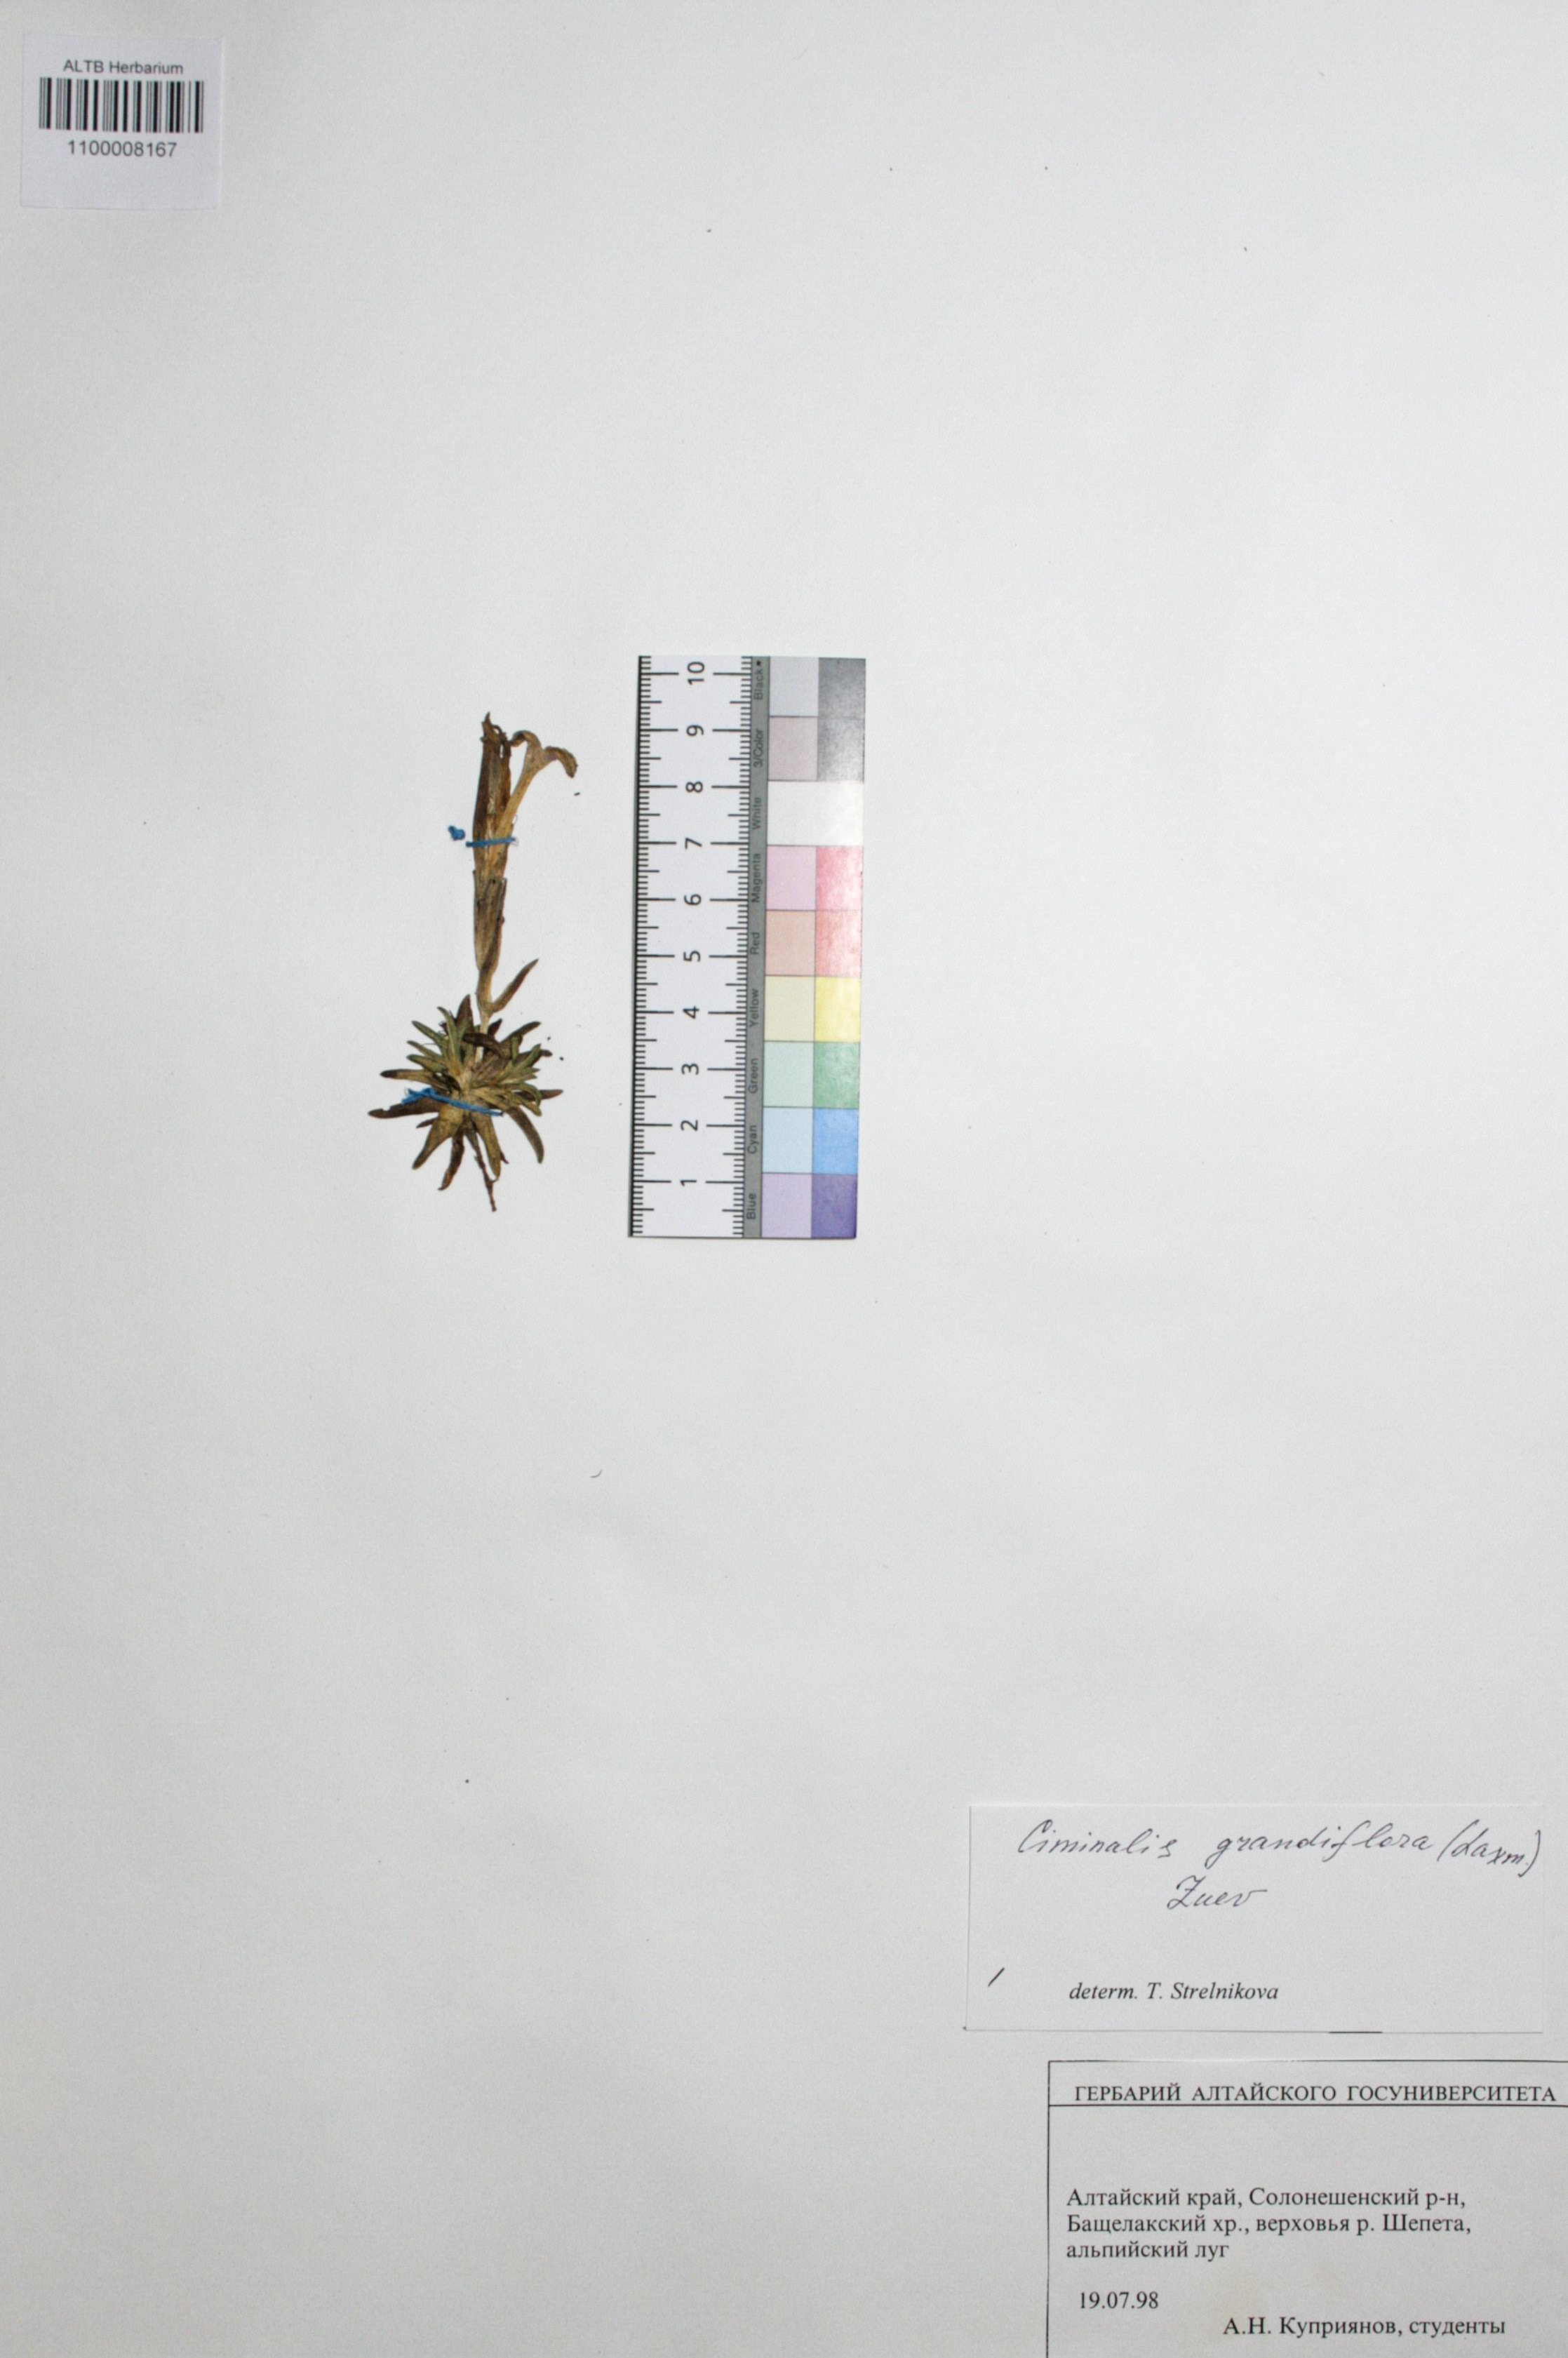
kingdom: Plantae
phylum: Tracheophyta
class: Magnoliopsida
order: Gentianales
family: Gentianaceae
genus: Gentiana
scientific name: Gentiana grandiflora
